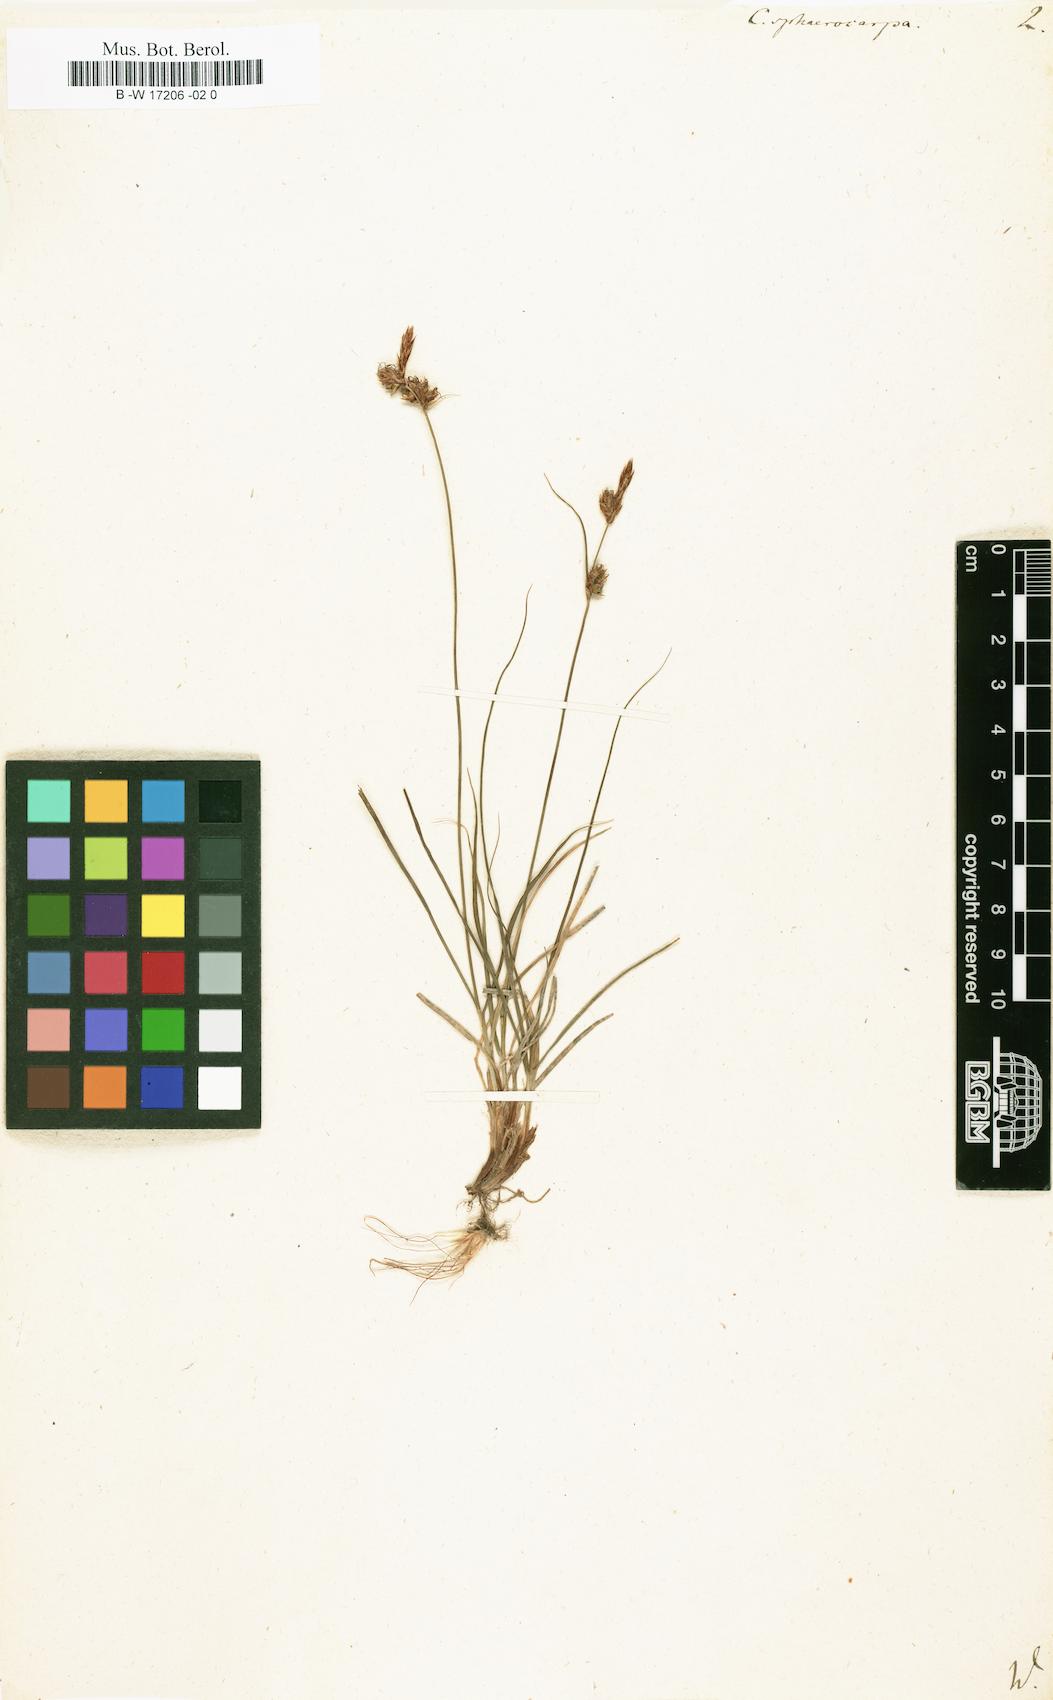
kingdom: Plantae
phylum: Tracheophyta
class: Liliopsida
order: Poales
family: Cyperaceae
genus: Carex
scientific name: Carex tomentosa
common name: Downy-fruited sedge
